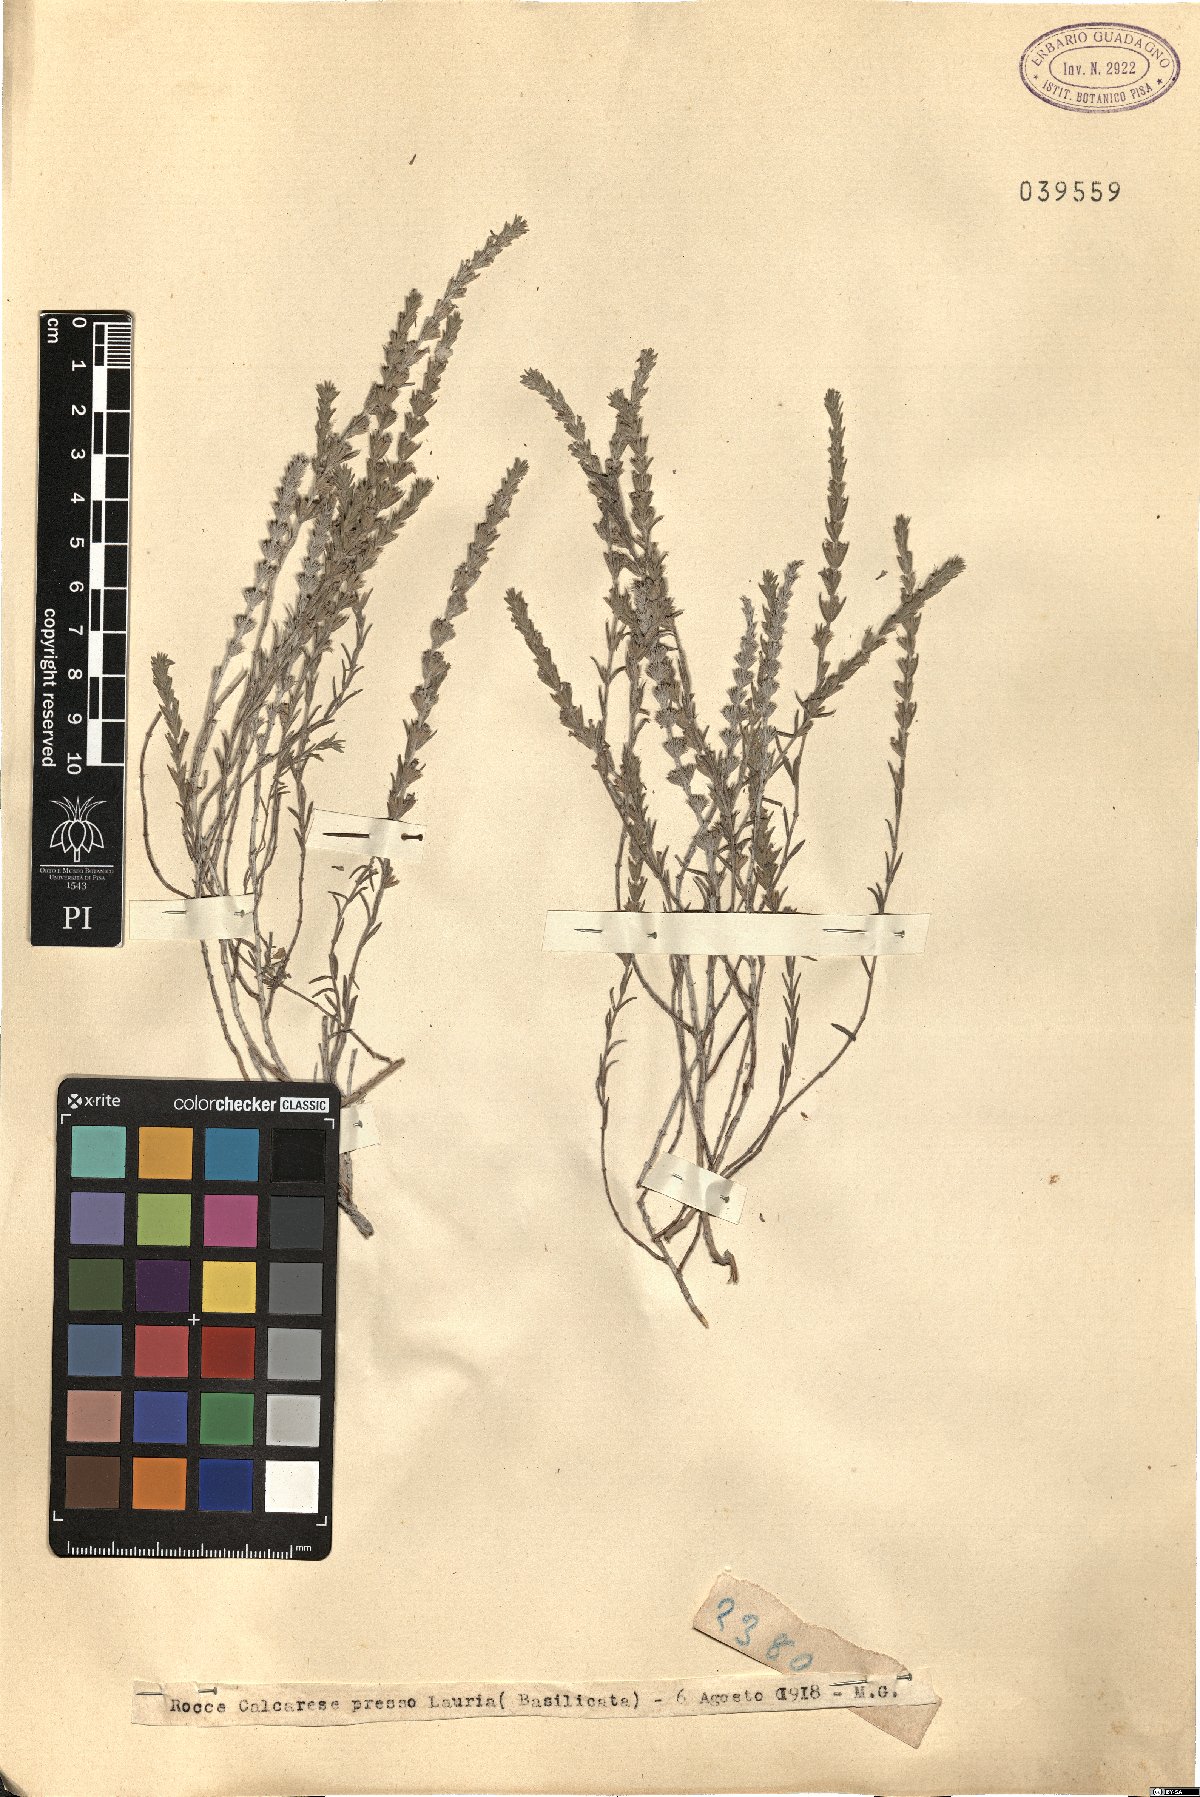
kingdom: Plantae
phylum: Tracheophyta
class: Magnoliopsida
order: Lamiales
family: Lamiaceae
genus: Micromeria
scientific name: Micromeria
